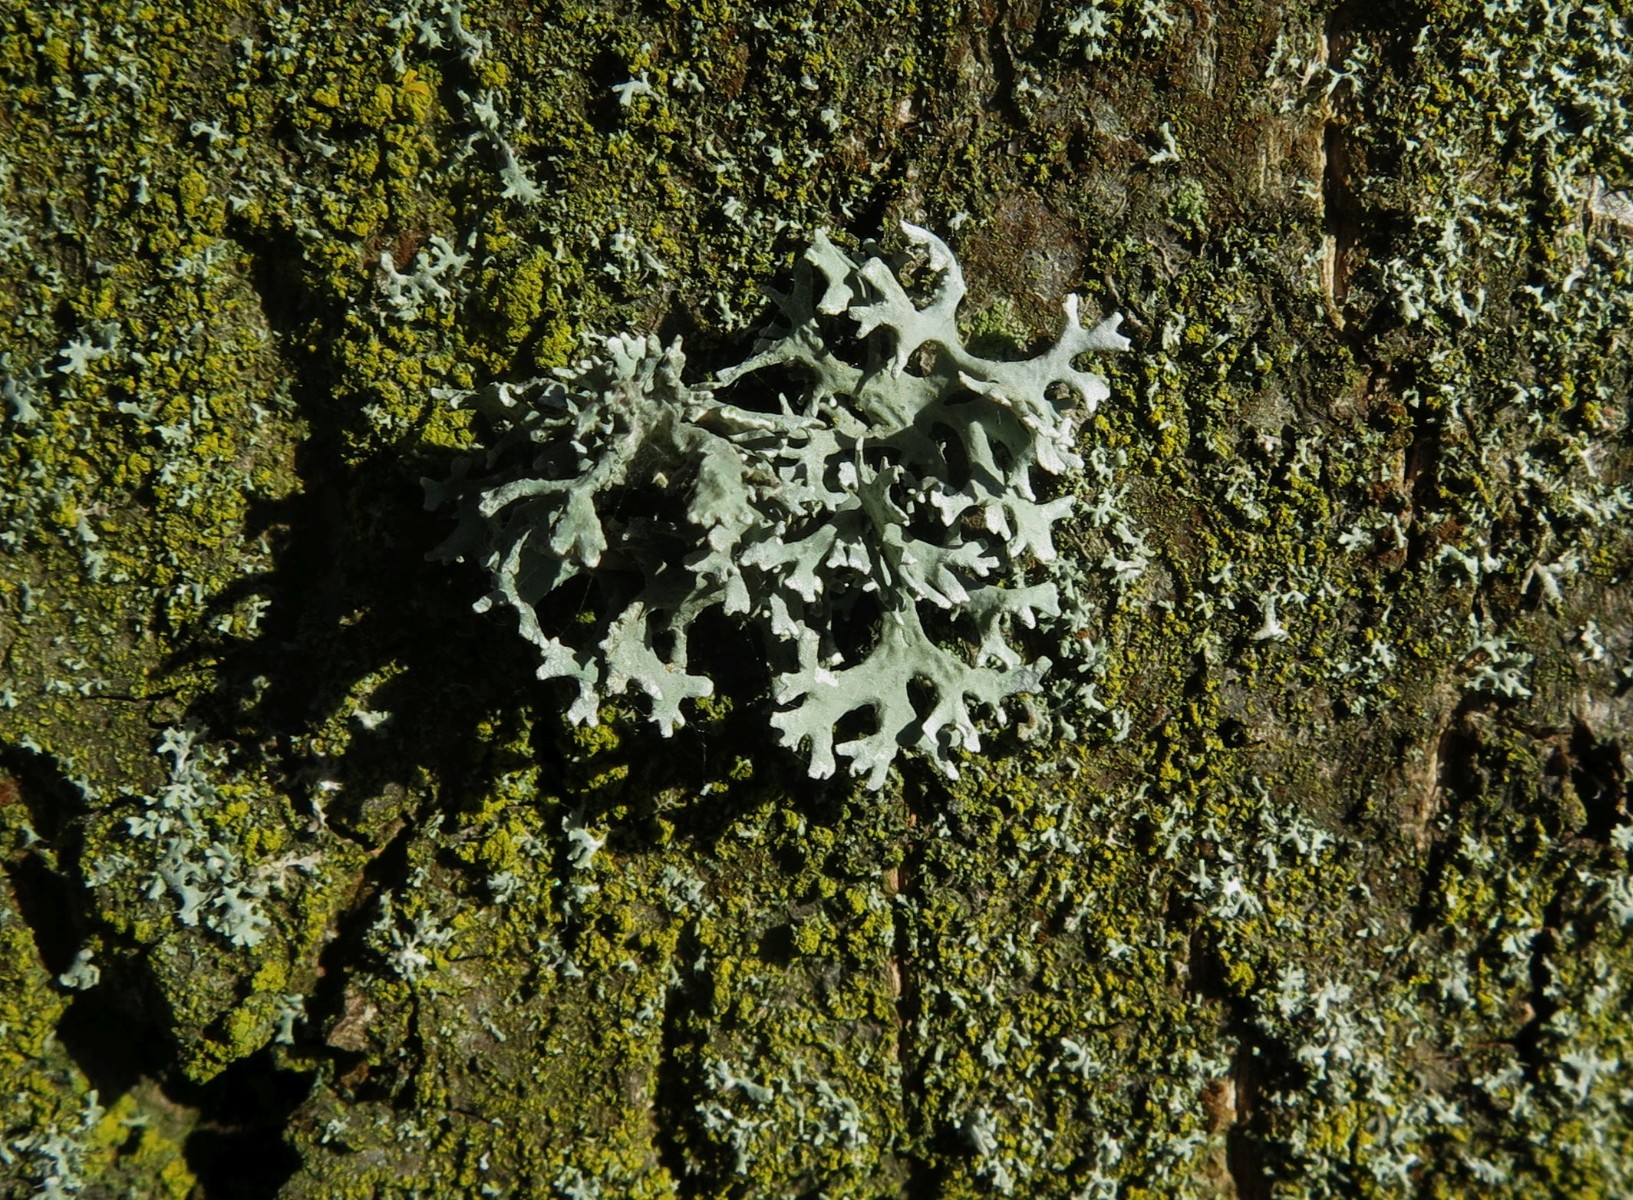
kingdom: Fungi
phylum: Ascomycota
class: Lecanoromycetes
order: Lecanorales
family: Parmeliaceae
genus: Evernia
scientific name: Evernia prunastri
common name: almindelig slåenlav
